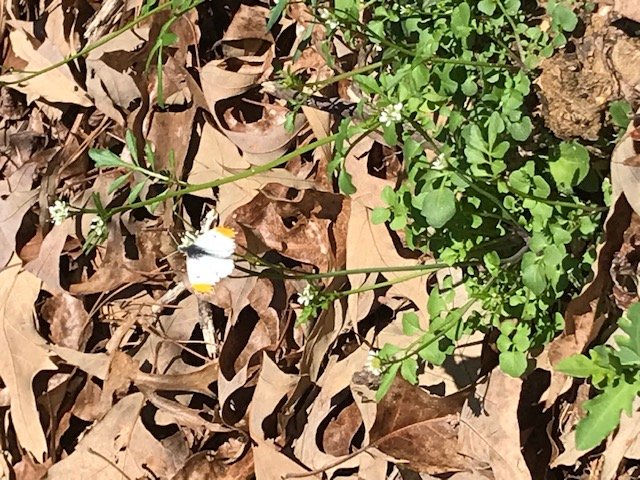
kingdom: Animalia
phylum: Arthropoda
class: Insecta
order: Lepidoptera
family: Pieridae
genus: Anthocharis
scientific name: Anthocharis midea
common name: Falcate Orangetip
